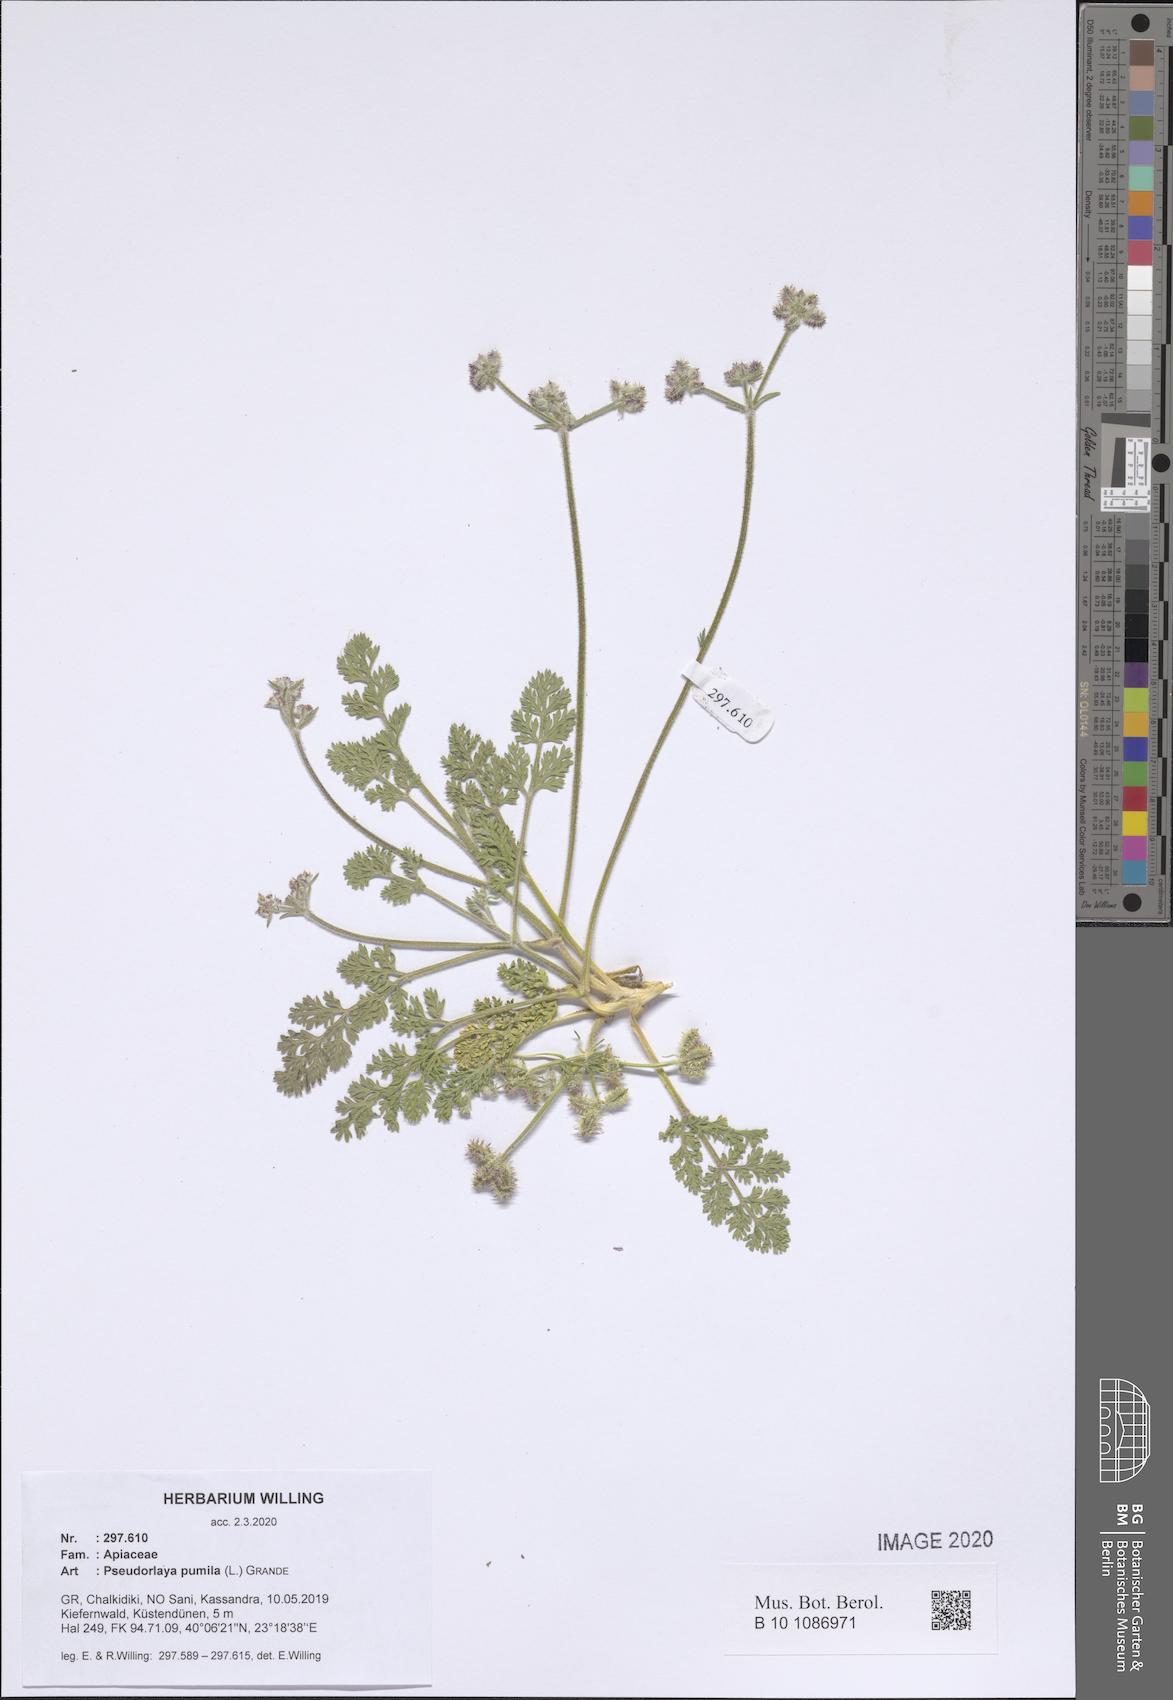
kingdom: Plantae
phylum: Tracheophyta
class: Magnoliopsida
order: Apiales
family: Apiaceae
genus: Daucus
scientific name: Daucus pumilus
